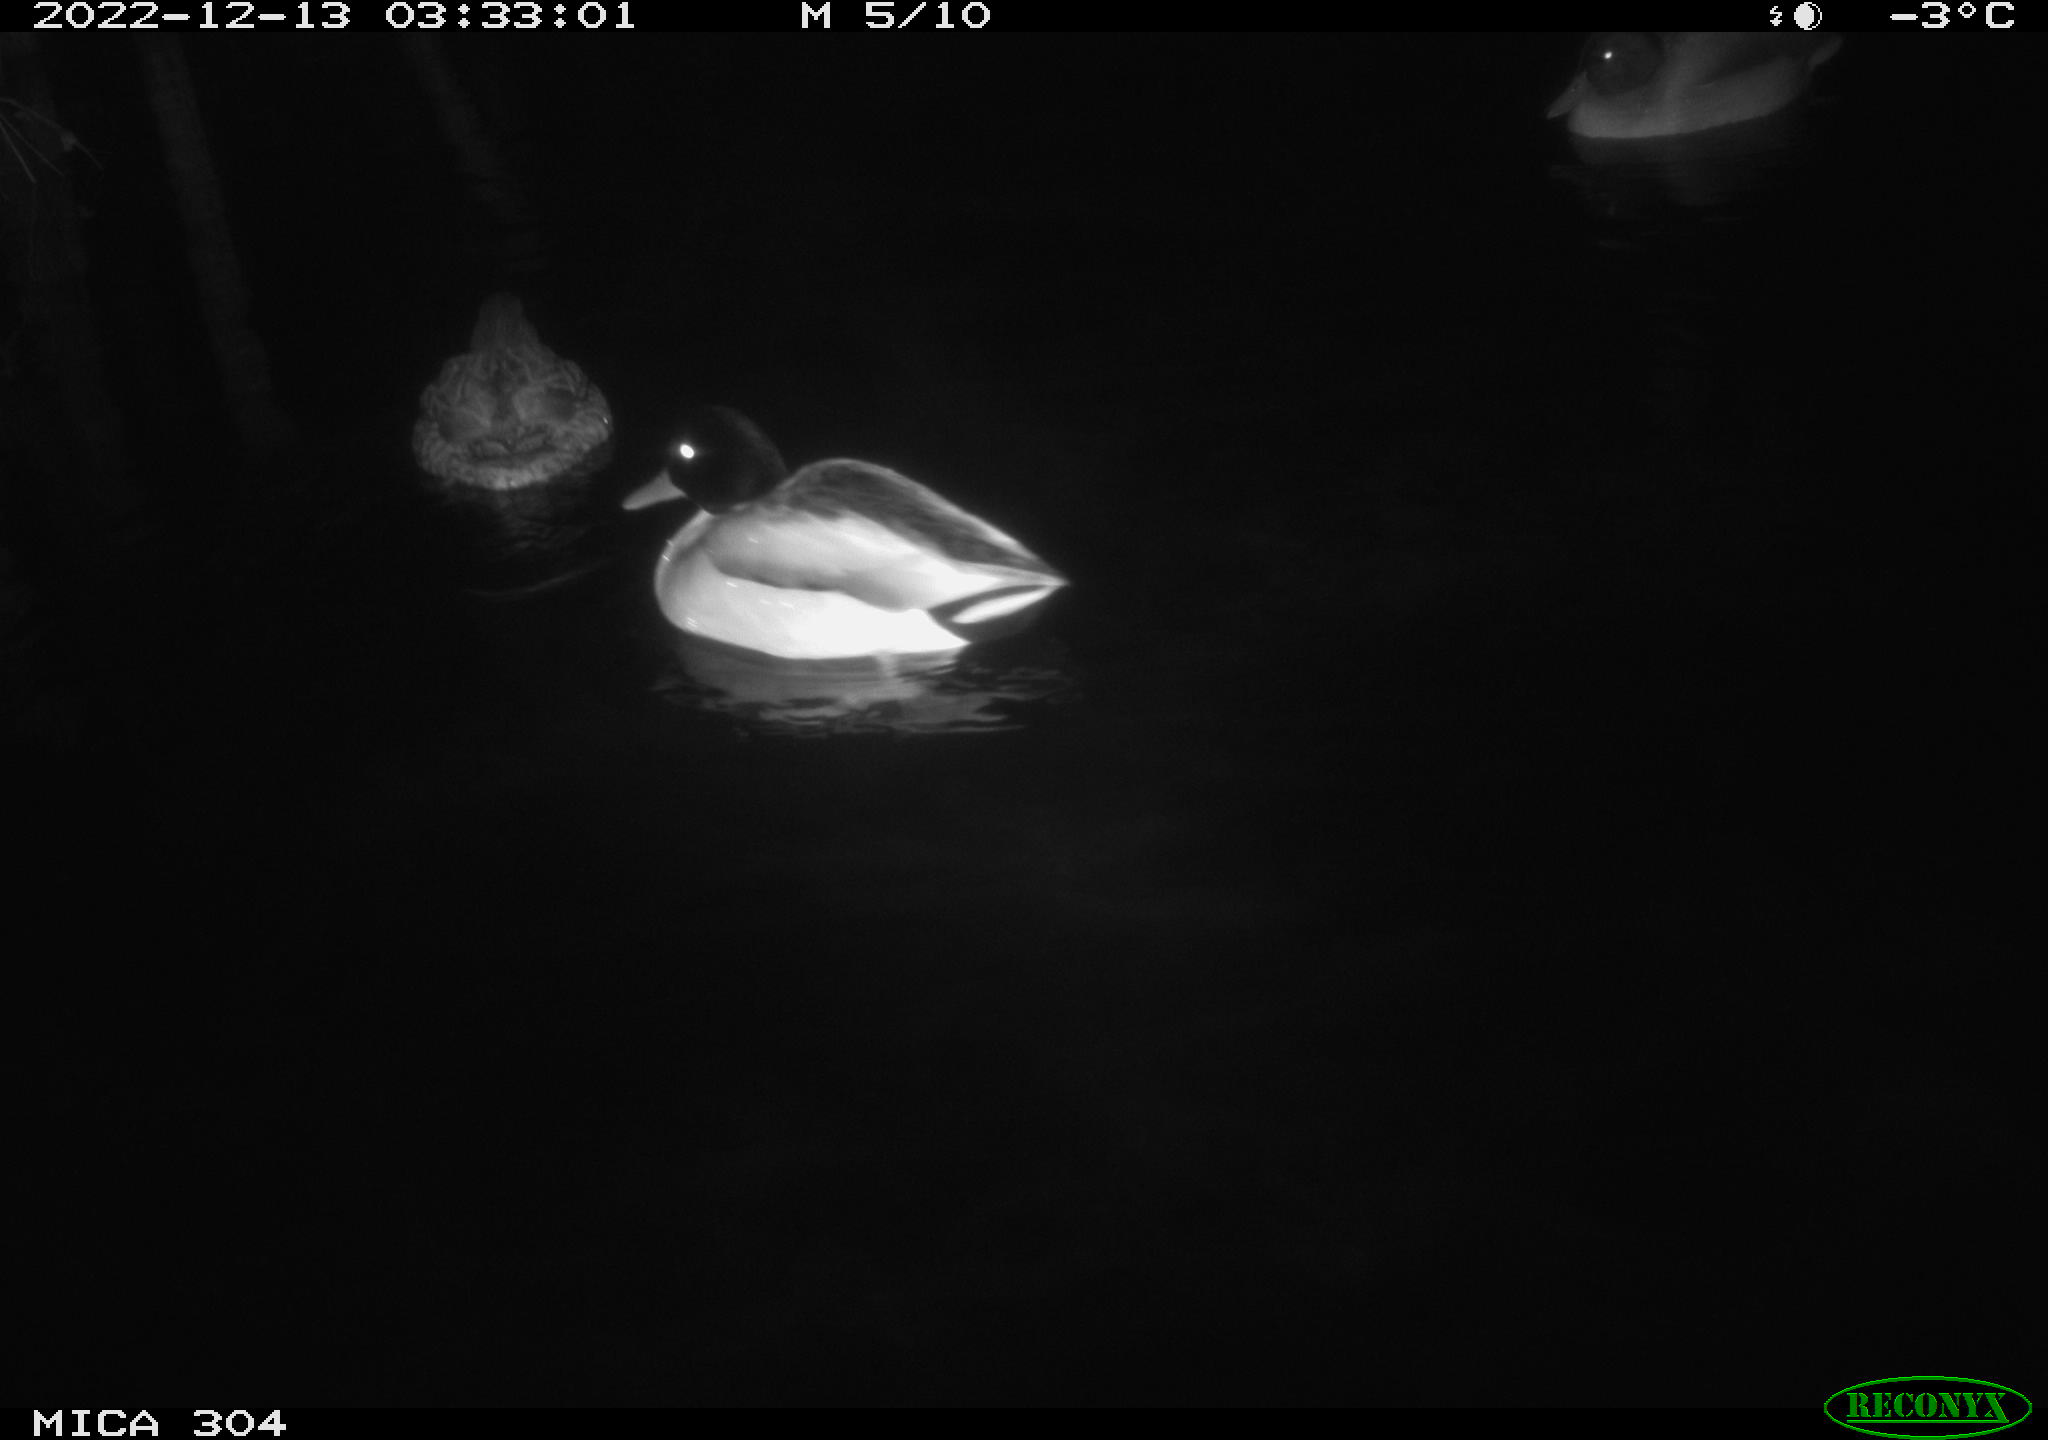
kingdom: Animalia
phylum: Chordata
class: Aves
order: Anseriformes
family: Anatidae
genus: Anas
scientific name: Anas
